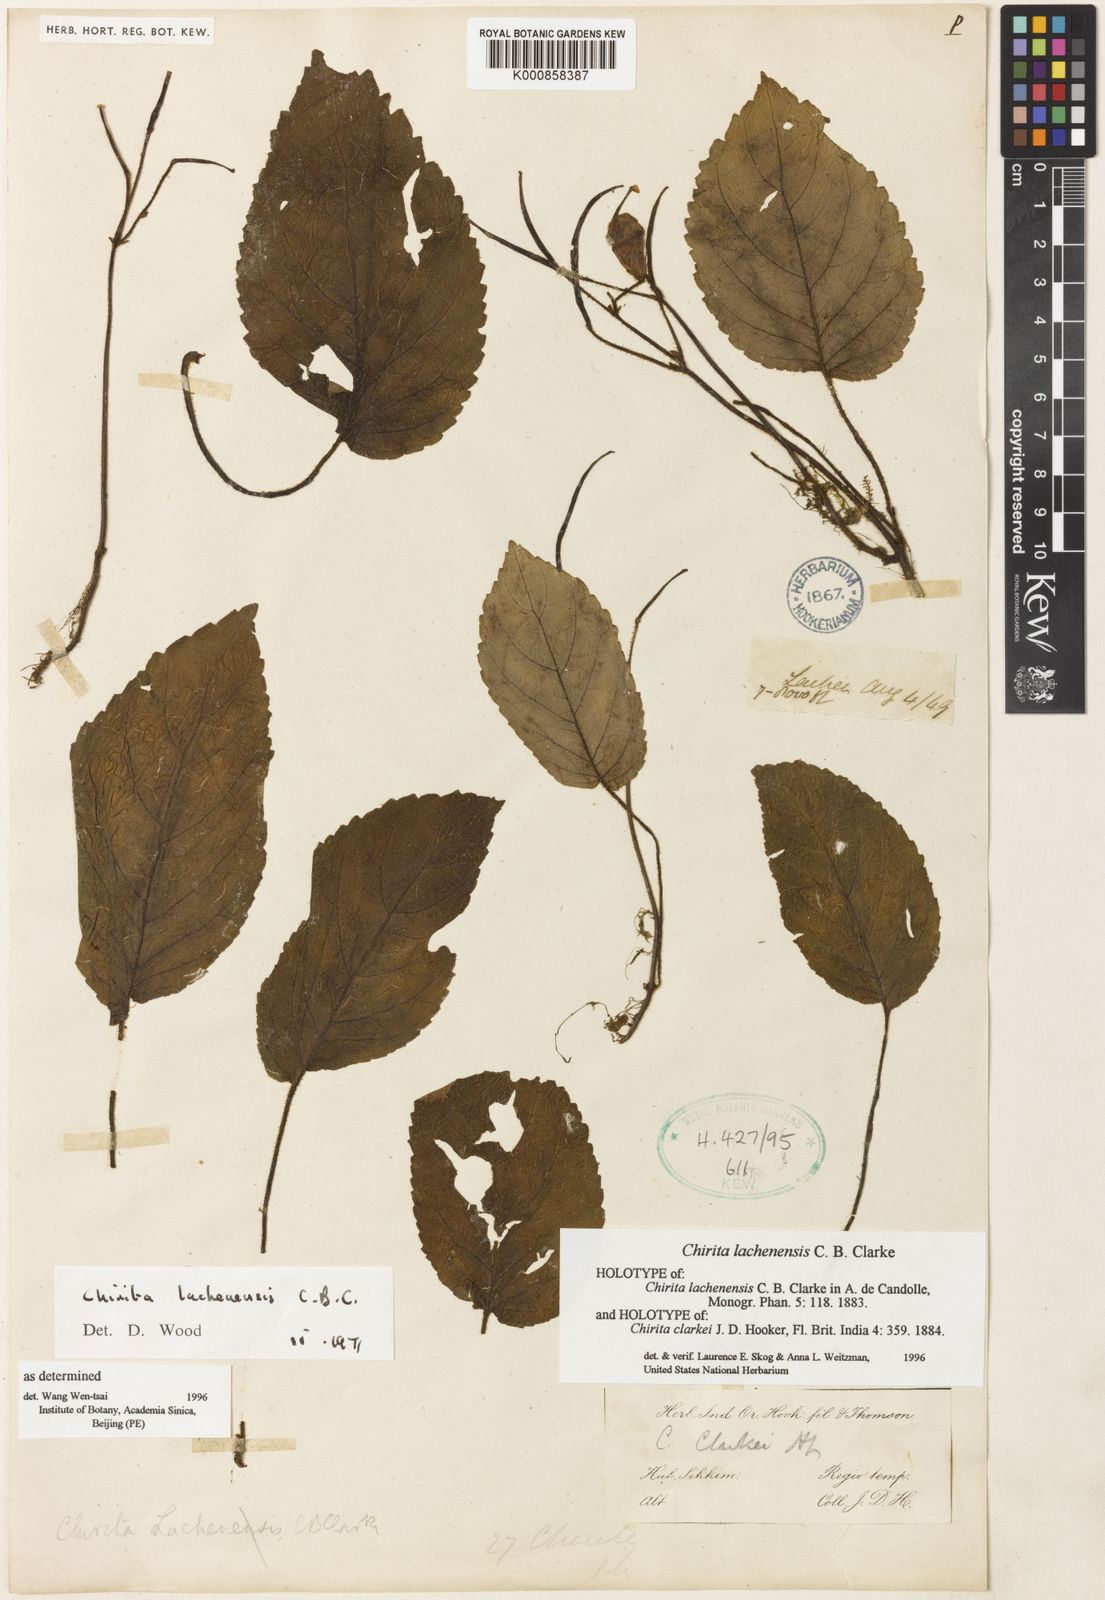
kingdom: Plantae
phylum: Tracheophyta
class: Magnoliopsida
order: Lamiales
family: Gesneriaceae
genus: Henckelia
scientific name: Henckelia lachenensis
